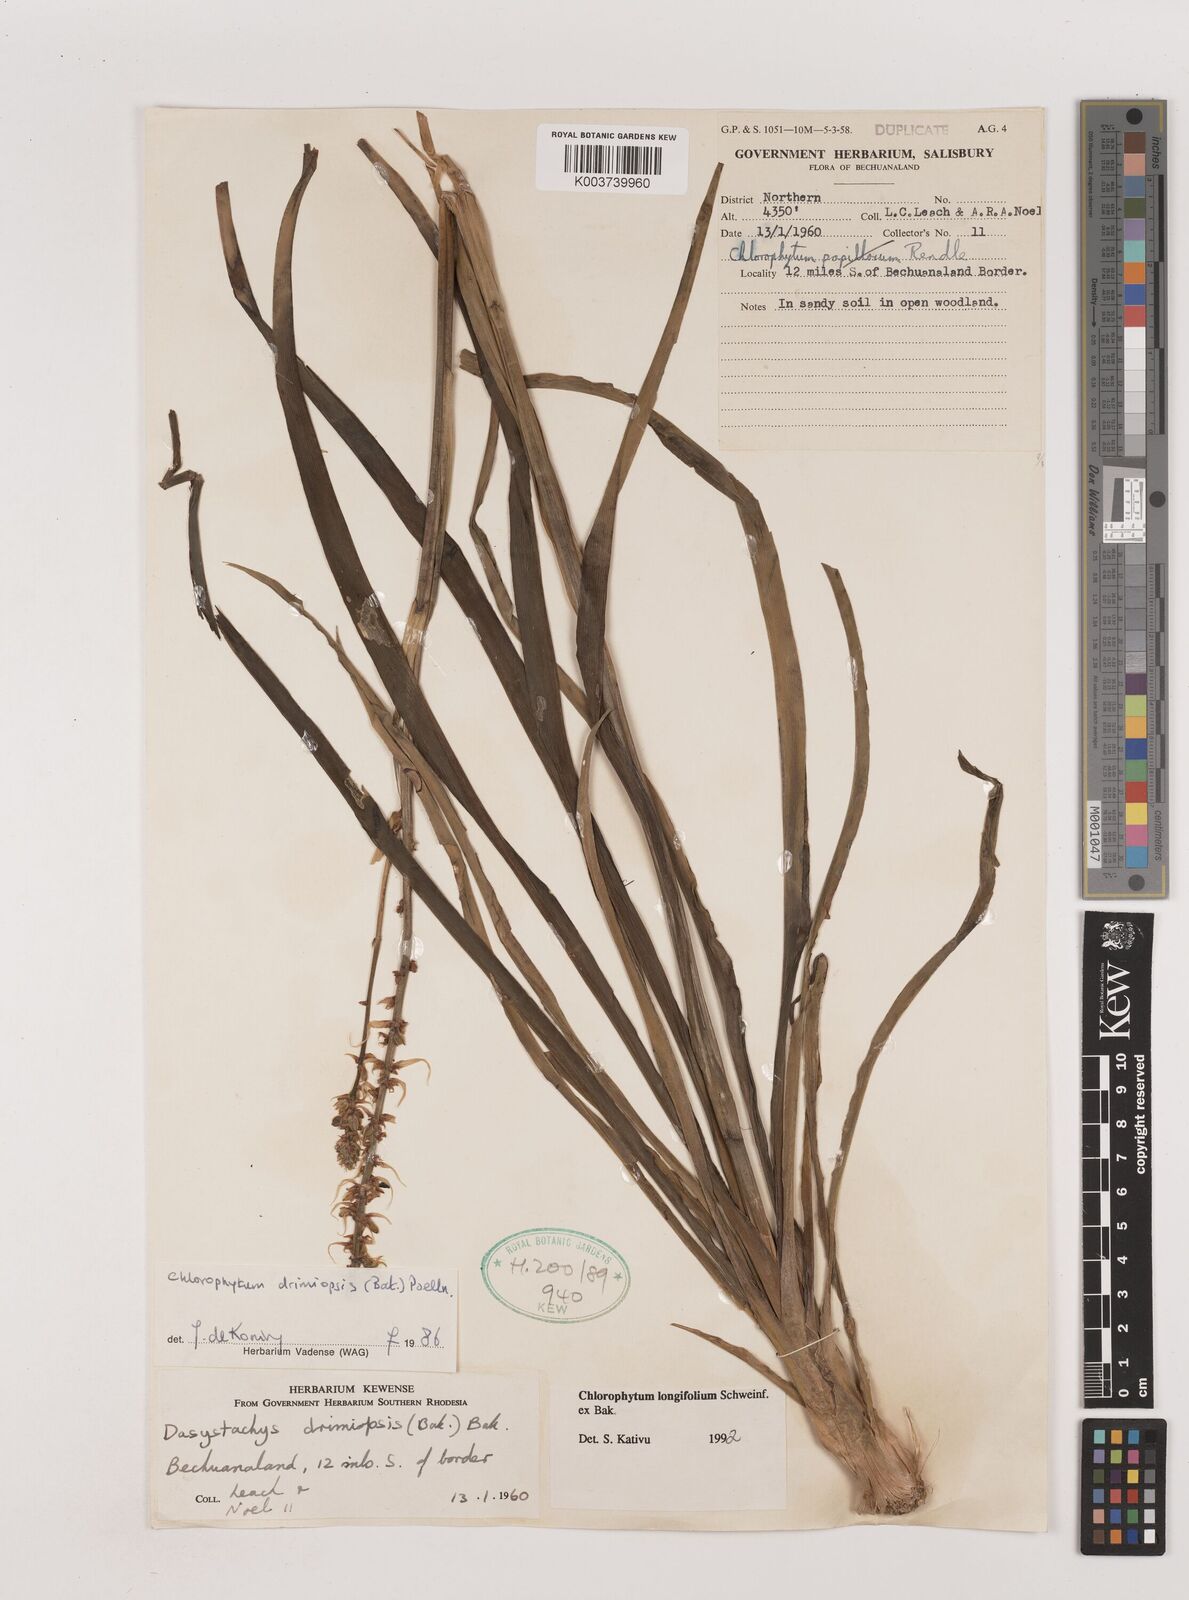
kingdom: Plantae
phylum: Tracheophyta
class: Liliopsida
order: Asparagales
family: Asparagaceae
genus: Chlorophytum
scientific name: Chlorophytum longifolium
